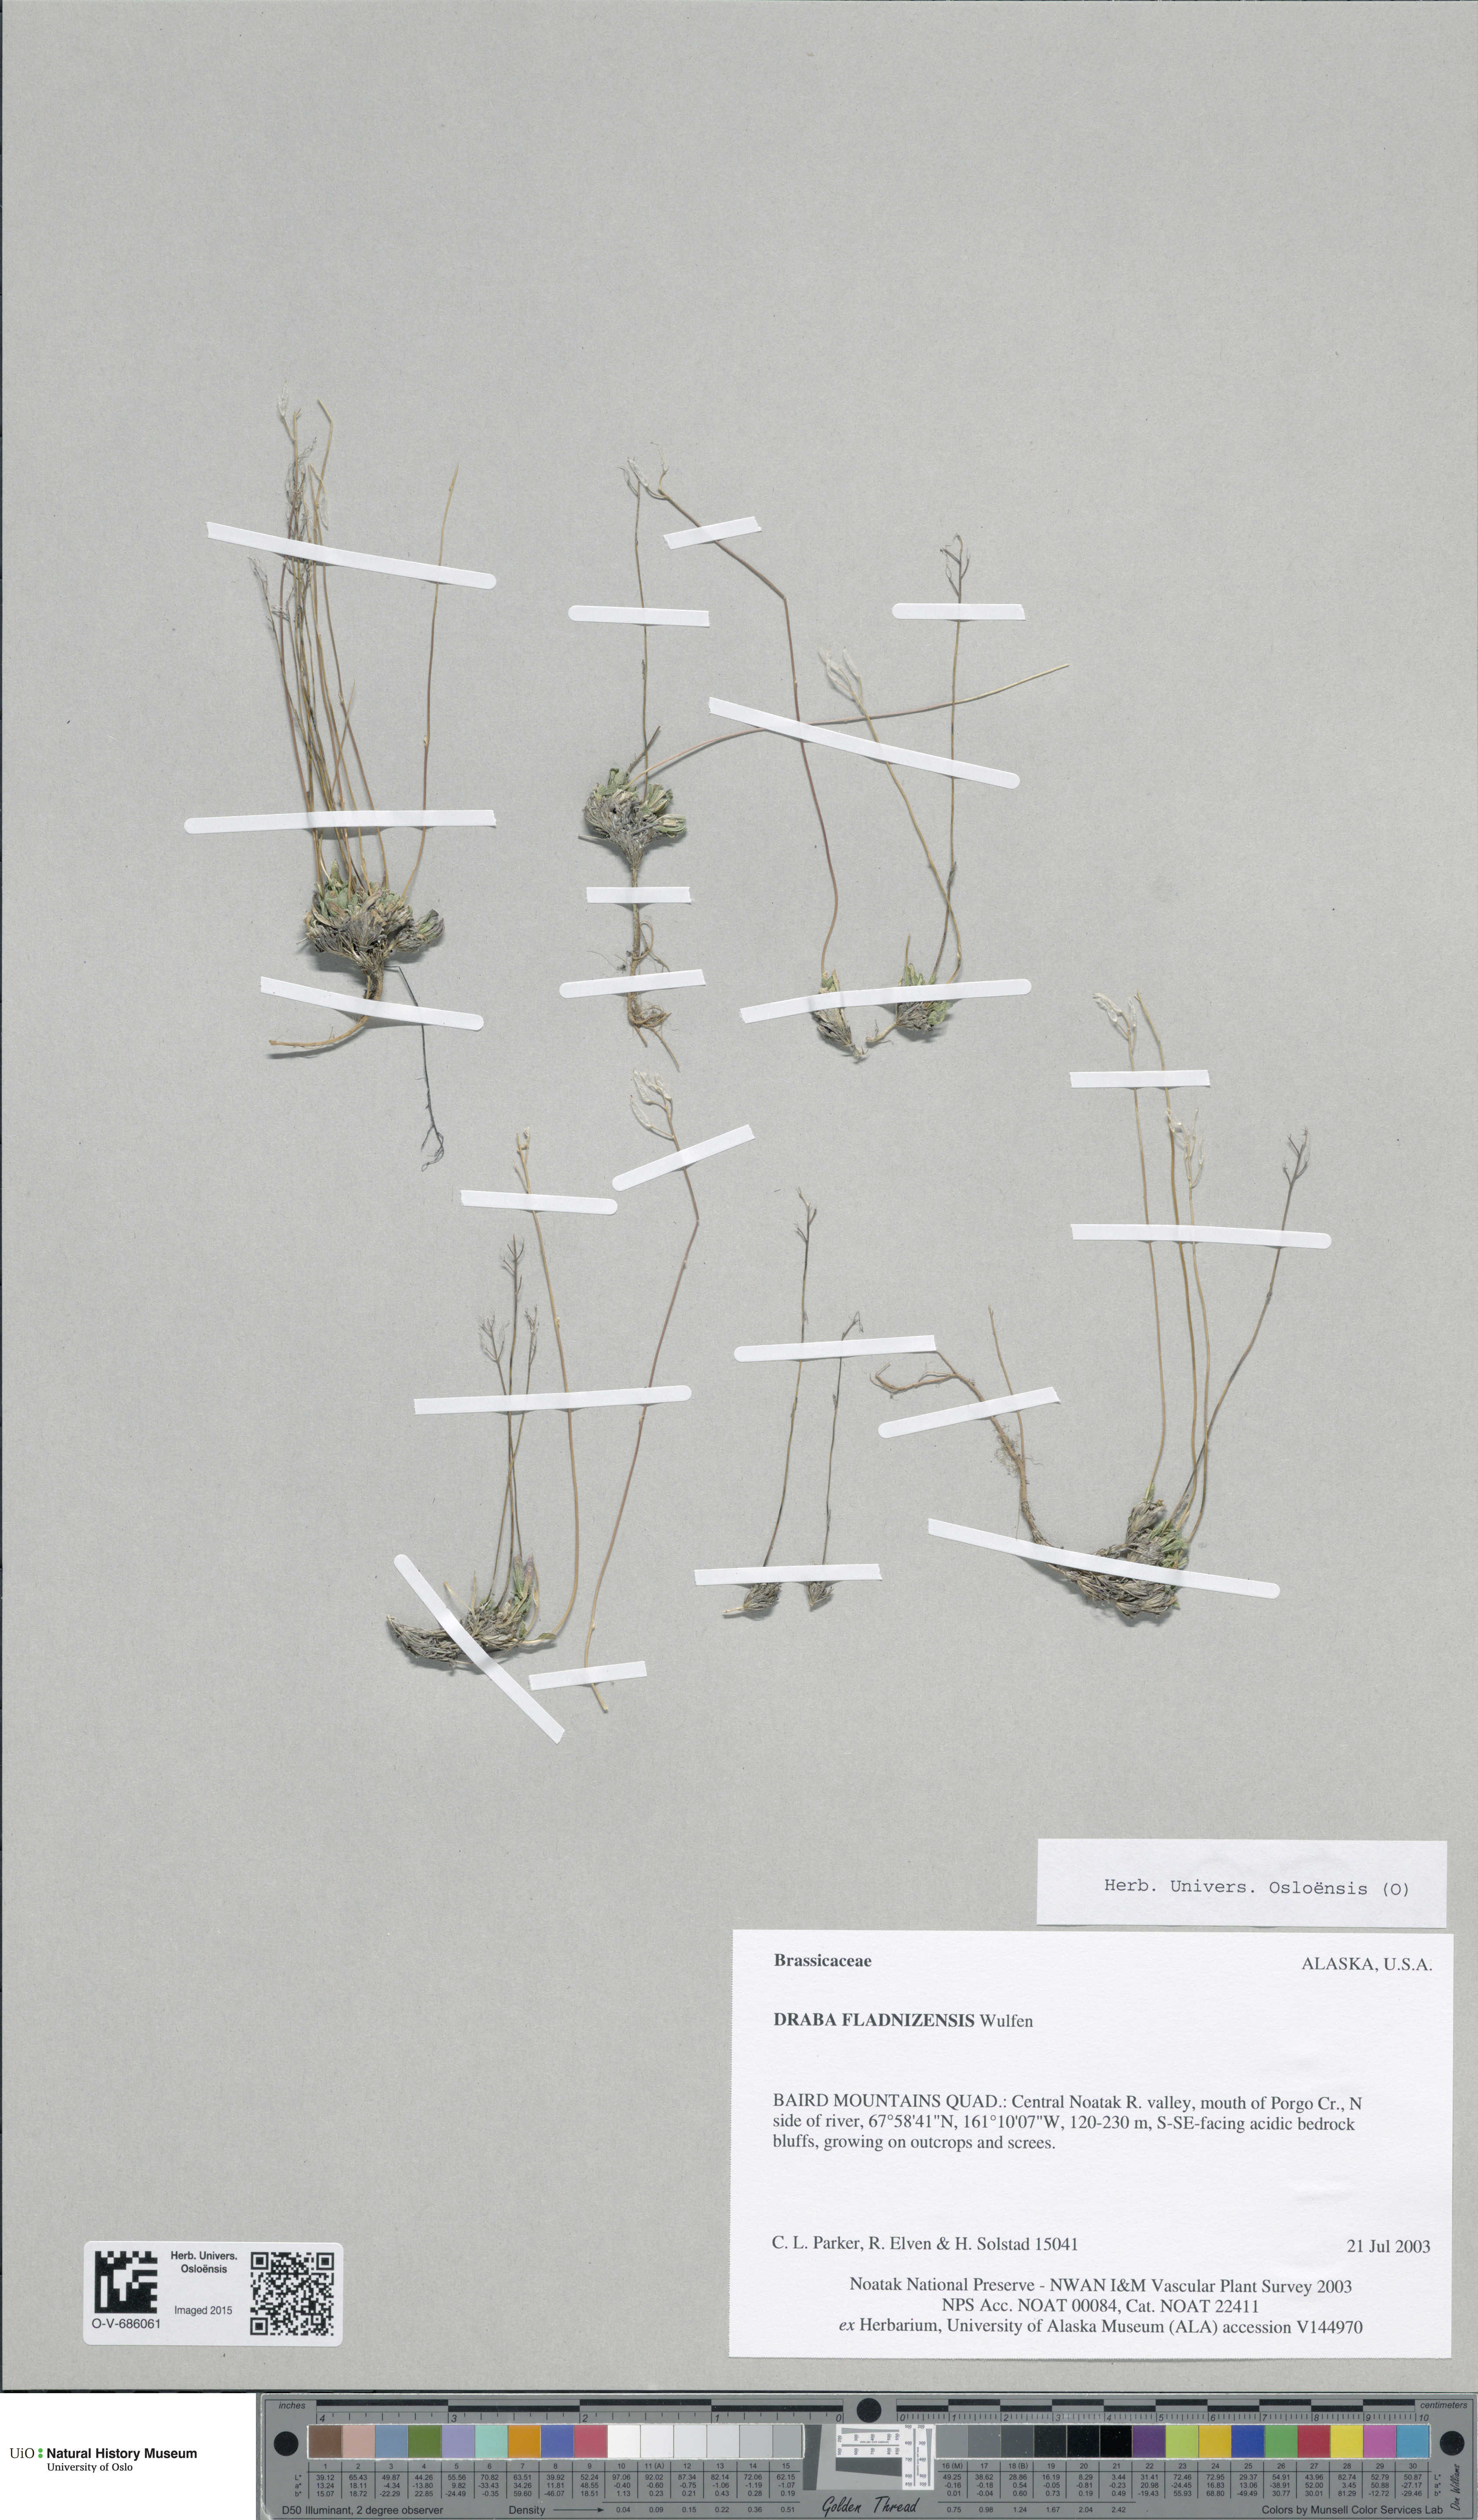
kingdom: Plantae
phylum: Tracheophyta
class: Magnoliopsida
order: Brassicales
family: Brassicaceae
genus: Draba
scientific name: Draba fladnizensis
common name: Austrian draba
